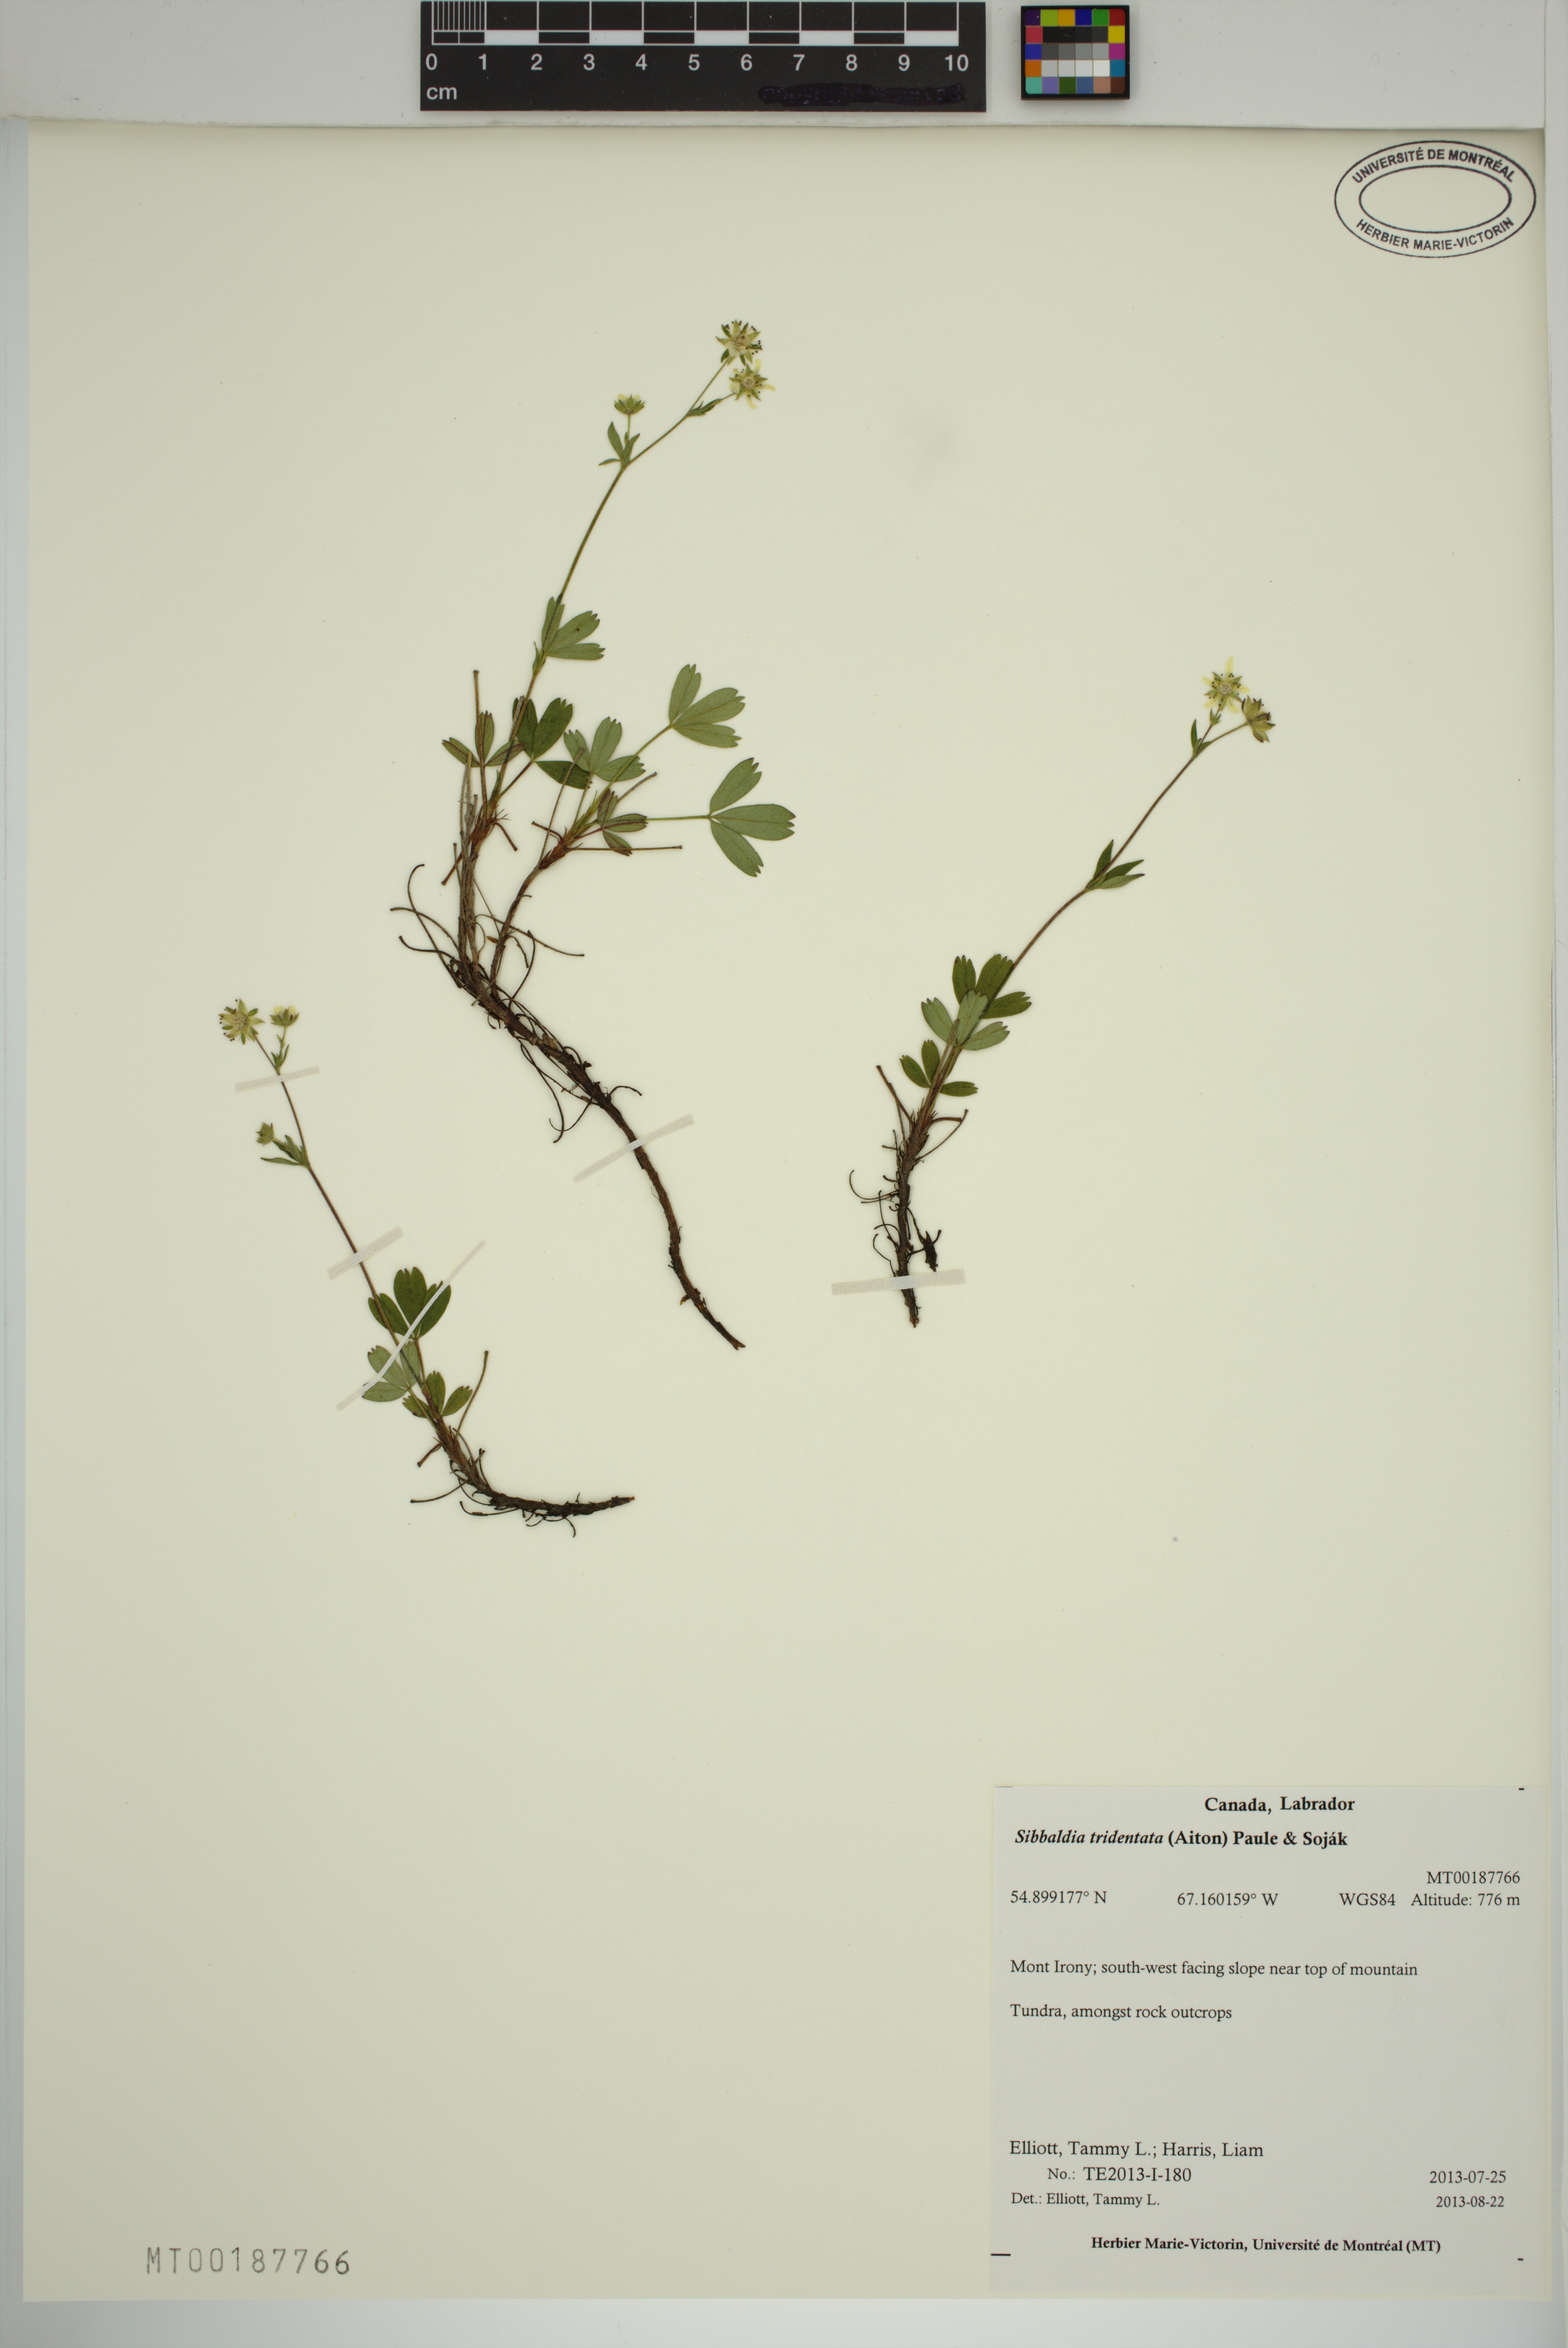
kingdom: Plantae
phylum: Tracheophyta
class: Magnoliopsida
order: Rosales
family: Rosaceae
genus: Sibbaldia
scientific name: Sibbaldia tridentata
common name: Three-toothed cinquefoil
